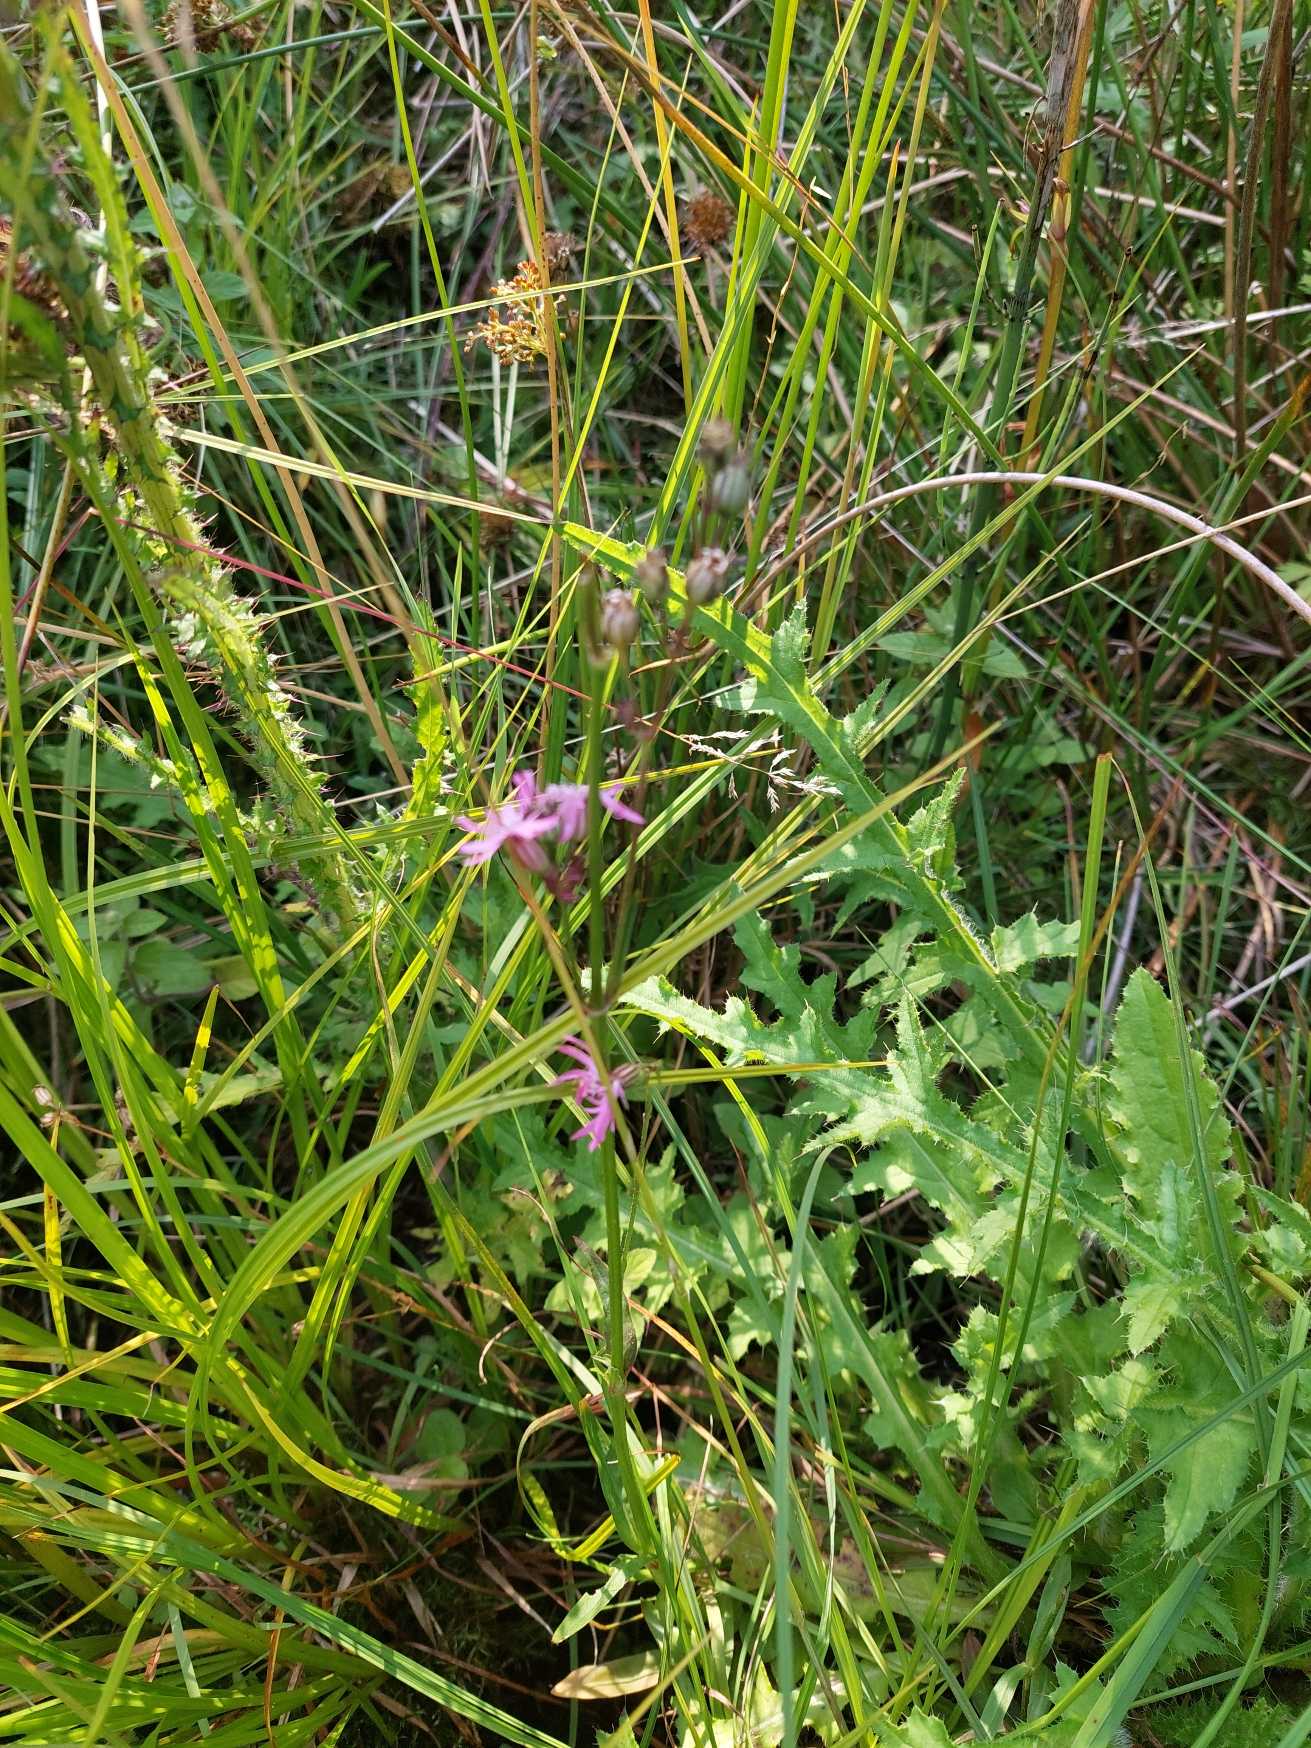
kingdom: Plantae
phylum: Tracheophyta
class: Magnoliopsida
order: Caryophyllales
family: Caryophyllaceae
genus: Silene
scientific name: Silene flos-cuculi
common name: Trævlekrone
